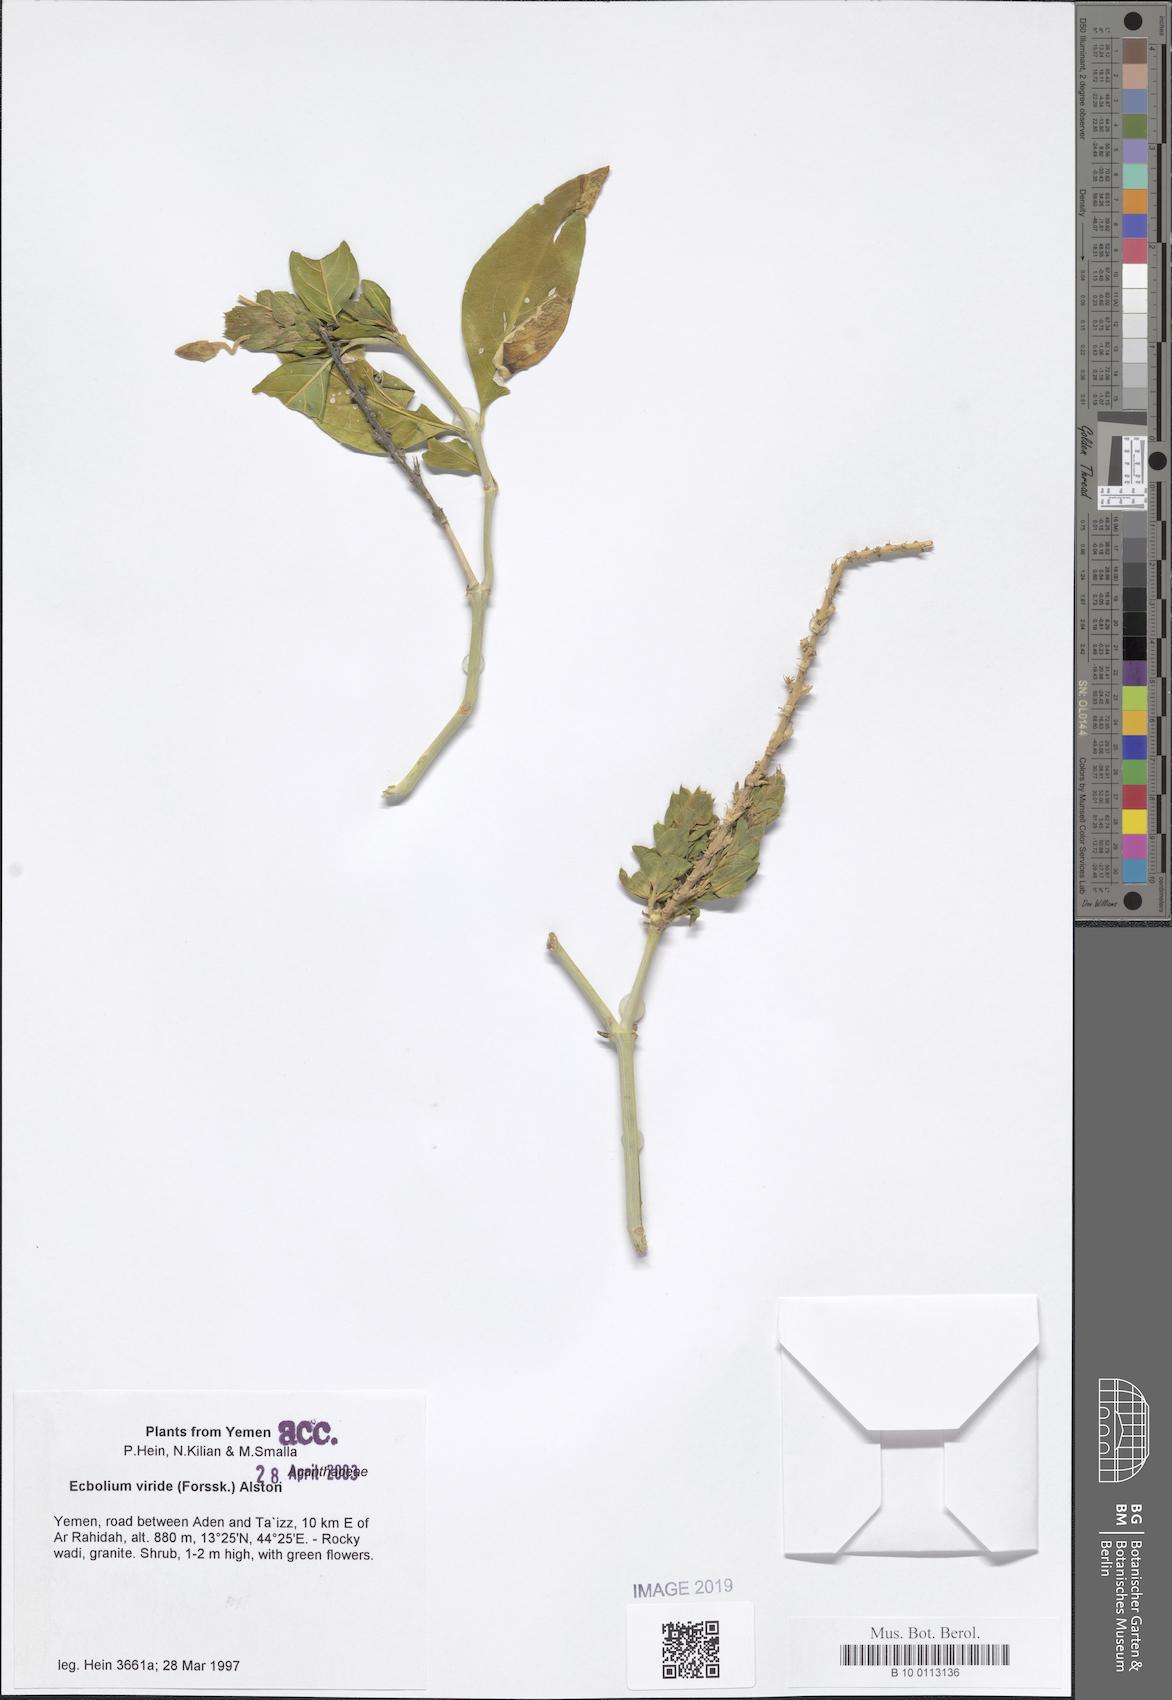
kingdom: Plantae
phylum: Tracheophyta
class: Magnoliopsida
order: Lamiales
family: Acanthaceae
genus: Ecbolium
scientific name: Ecbolium viride
